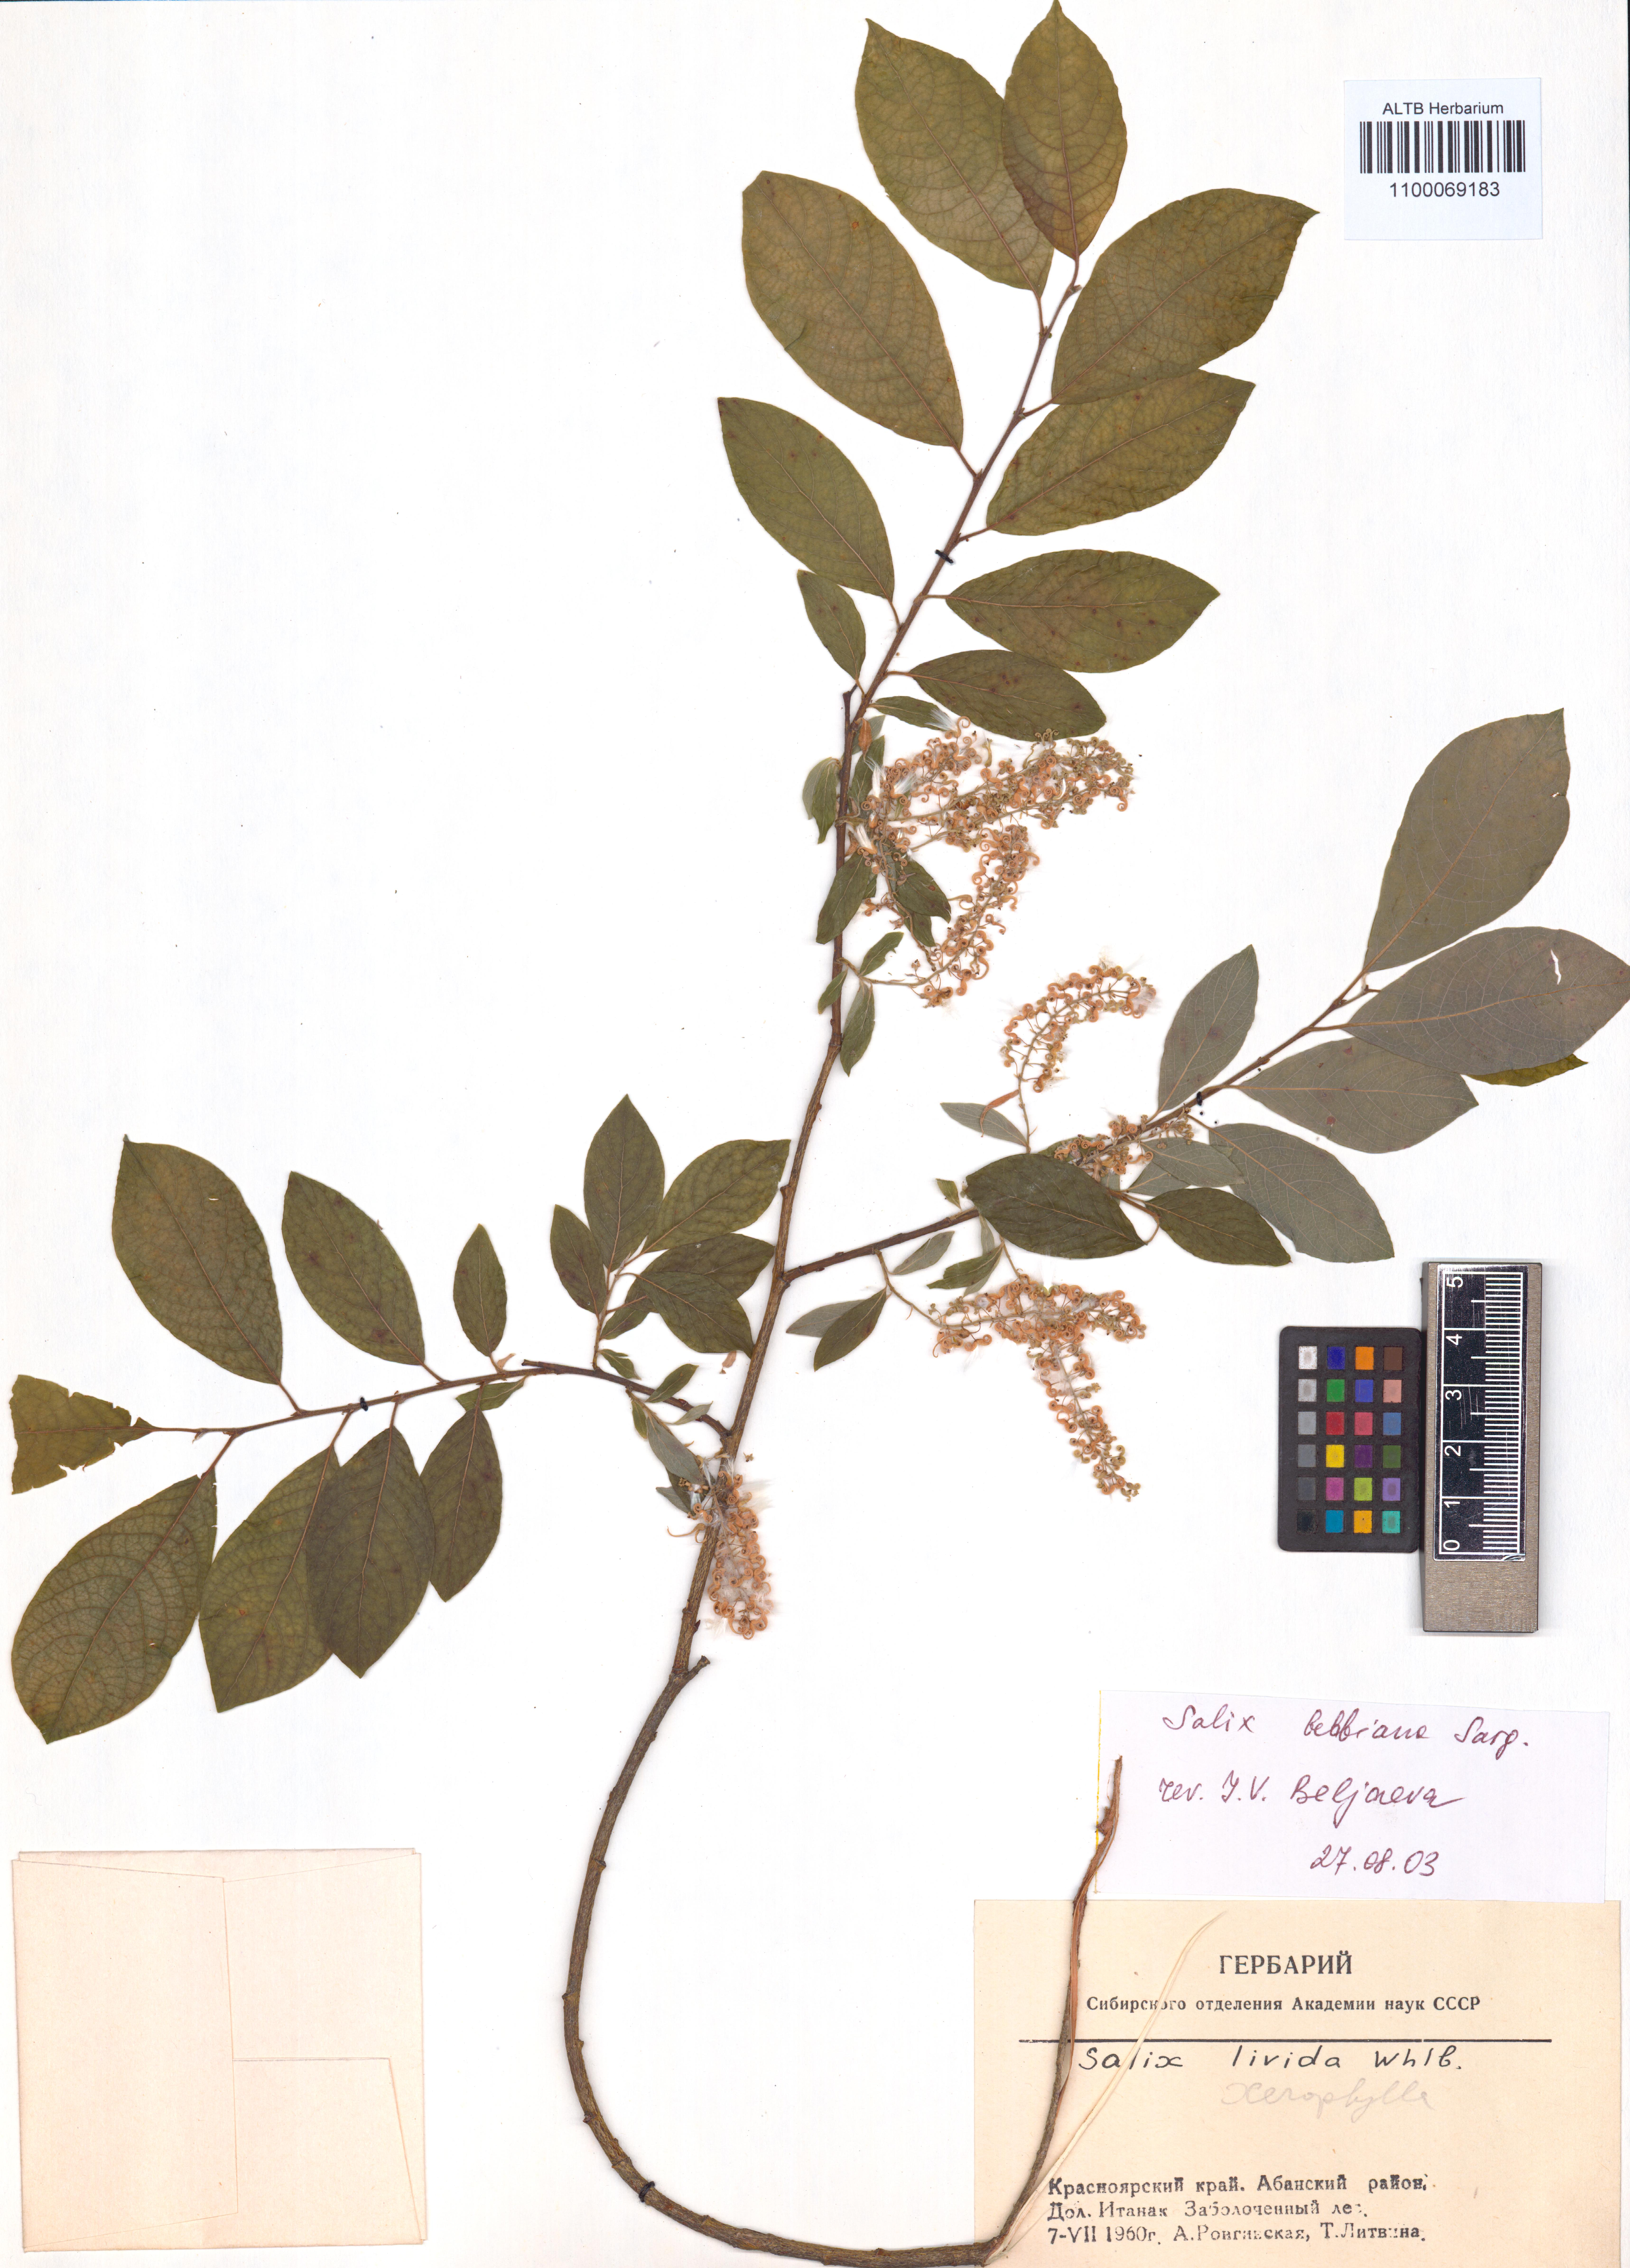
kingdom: Plantae
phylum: Tracheophyta
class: Magnoliopsida
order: Malpighiales
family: Salicaceae
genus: Salix
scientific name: Salix bebbiana
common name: Bebb's willow
